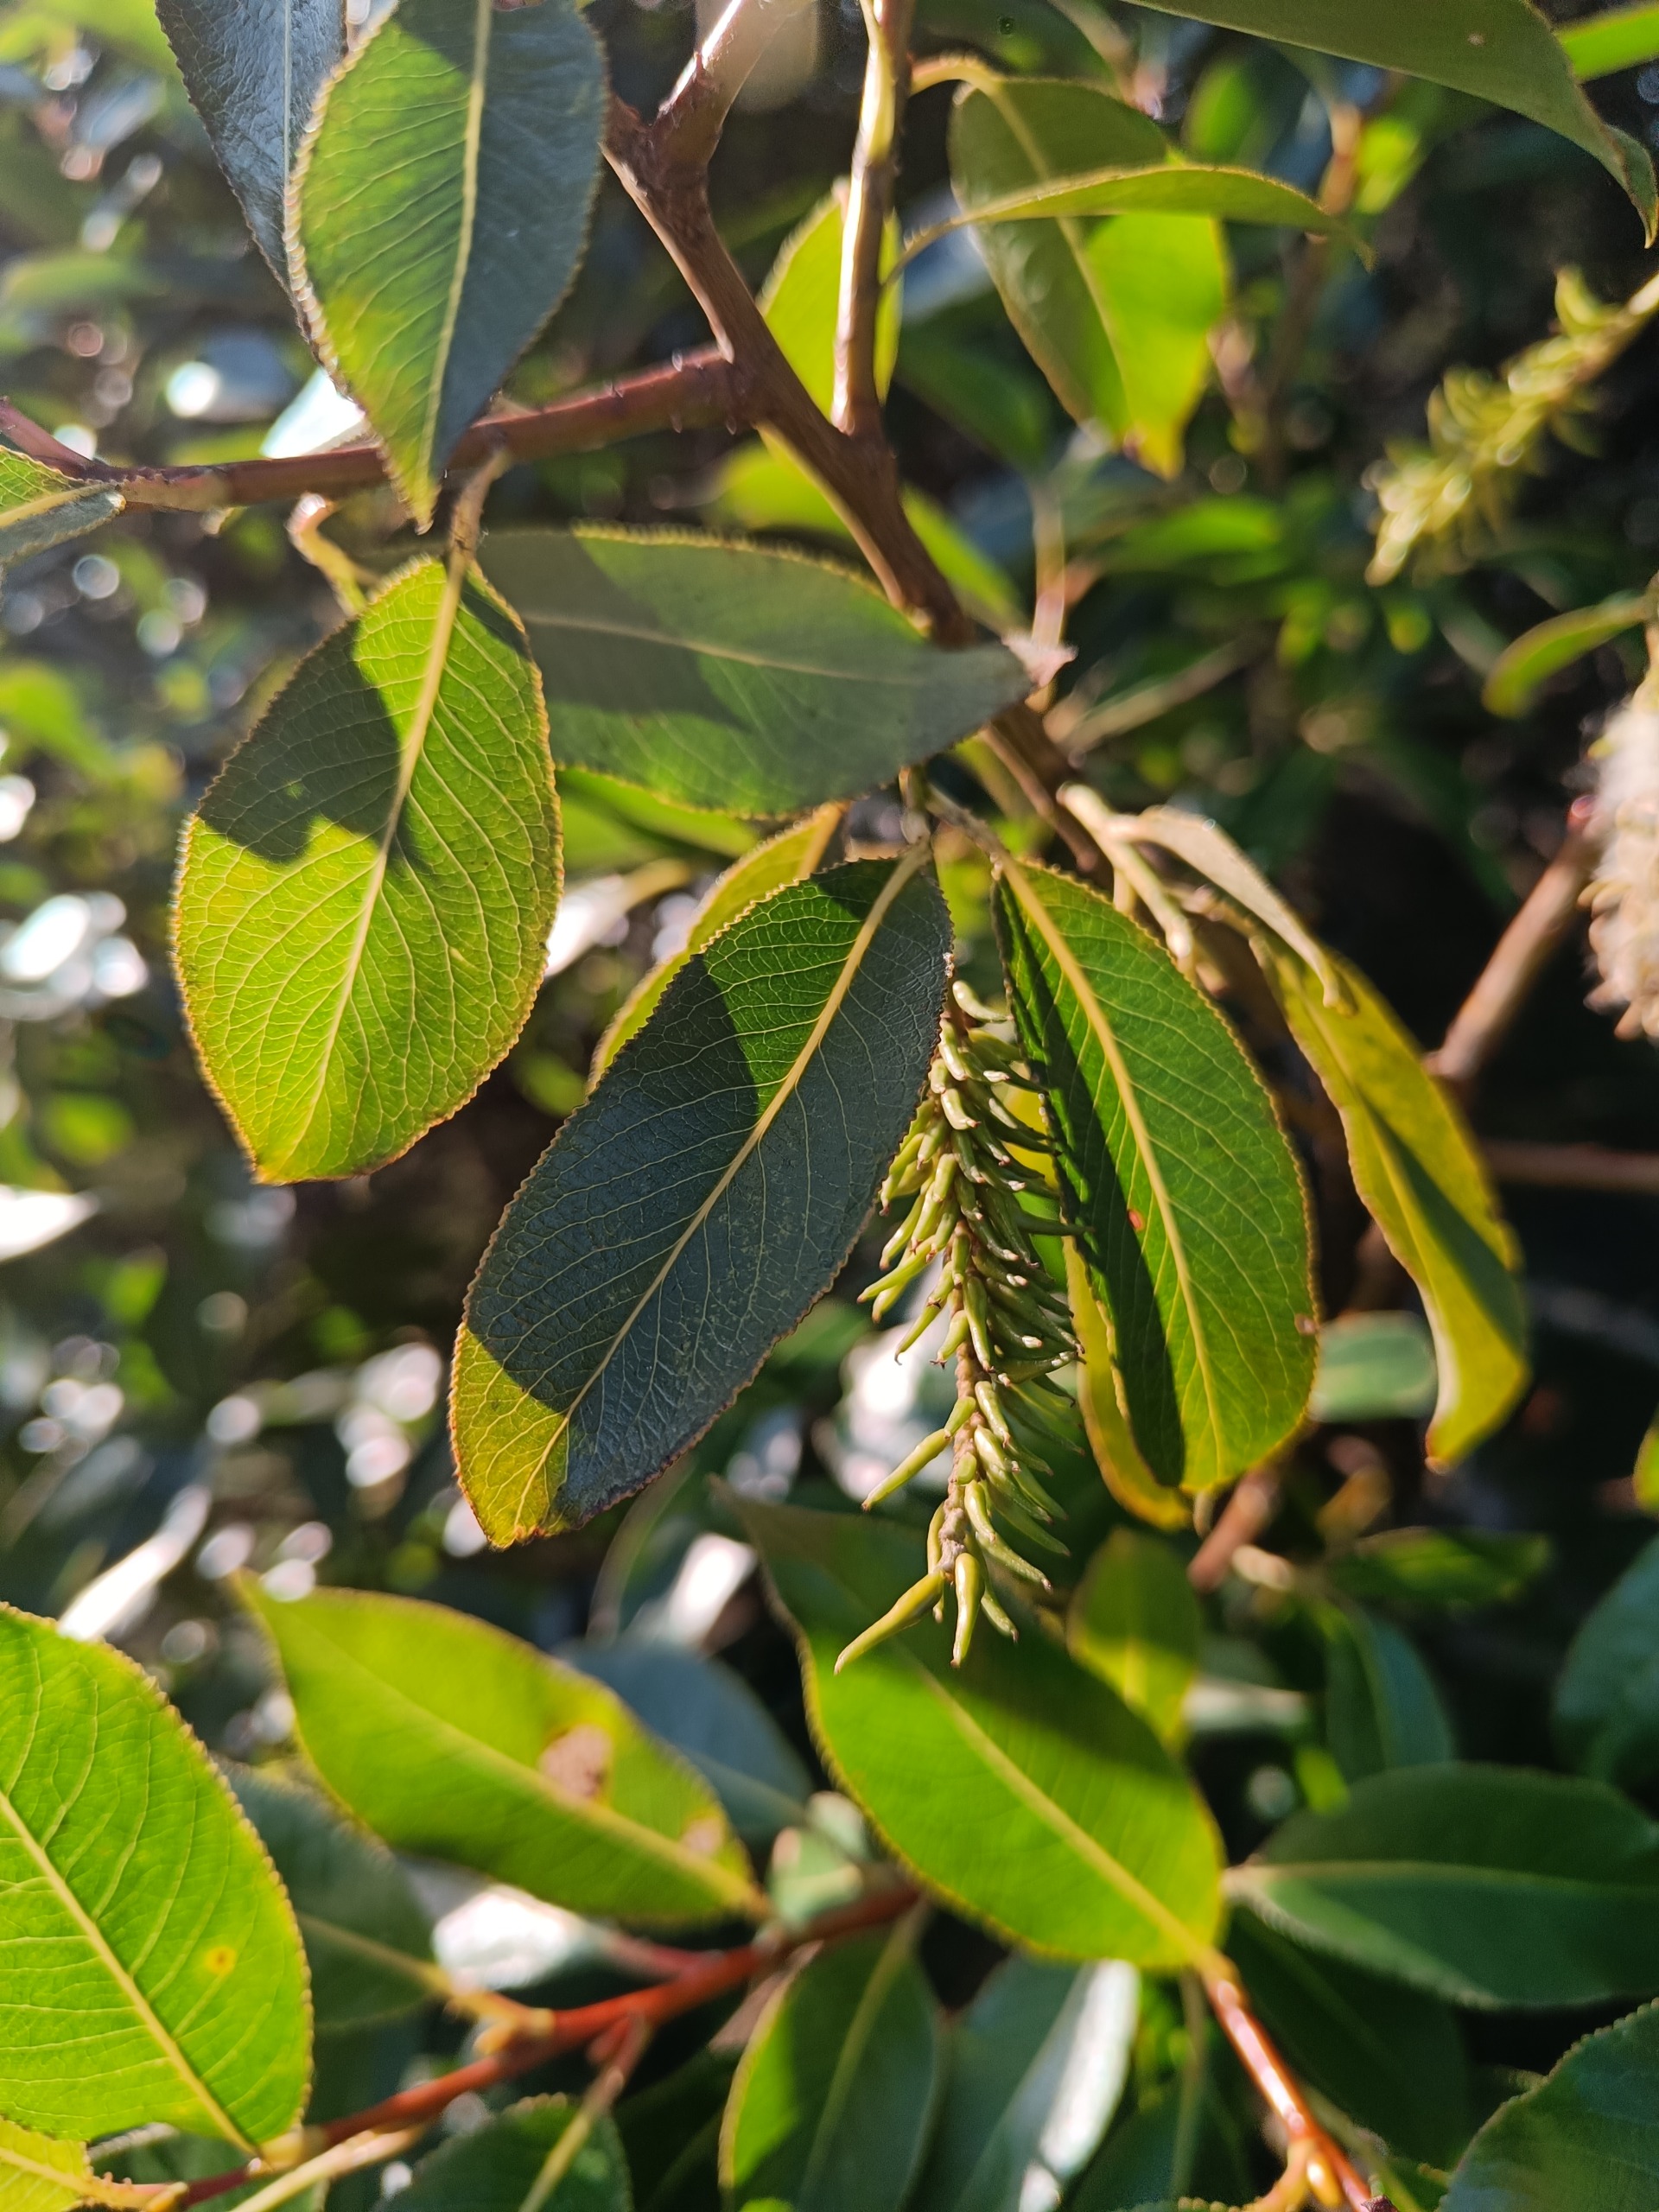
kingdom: Plantae
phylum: Tracheophyta
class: Magnoliopsida
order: Malpighiales
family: Salicaceae
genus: Salix
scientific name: Salix pentandra
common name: Femhannet pil
